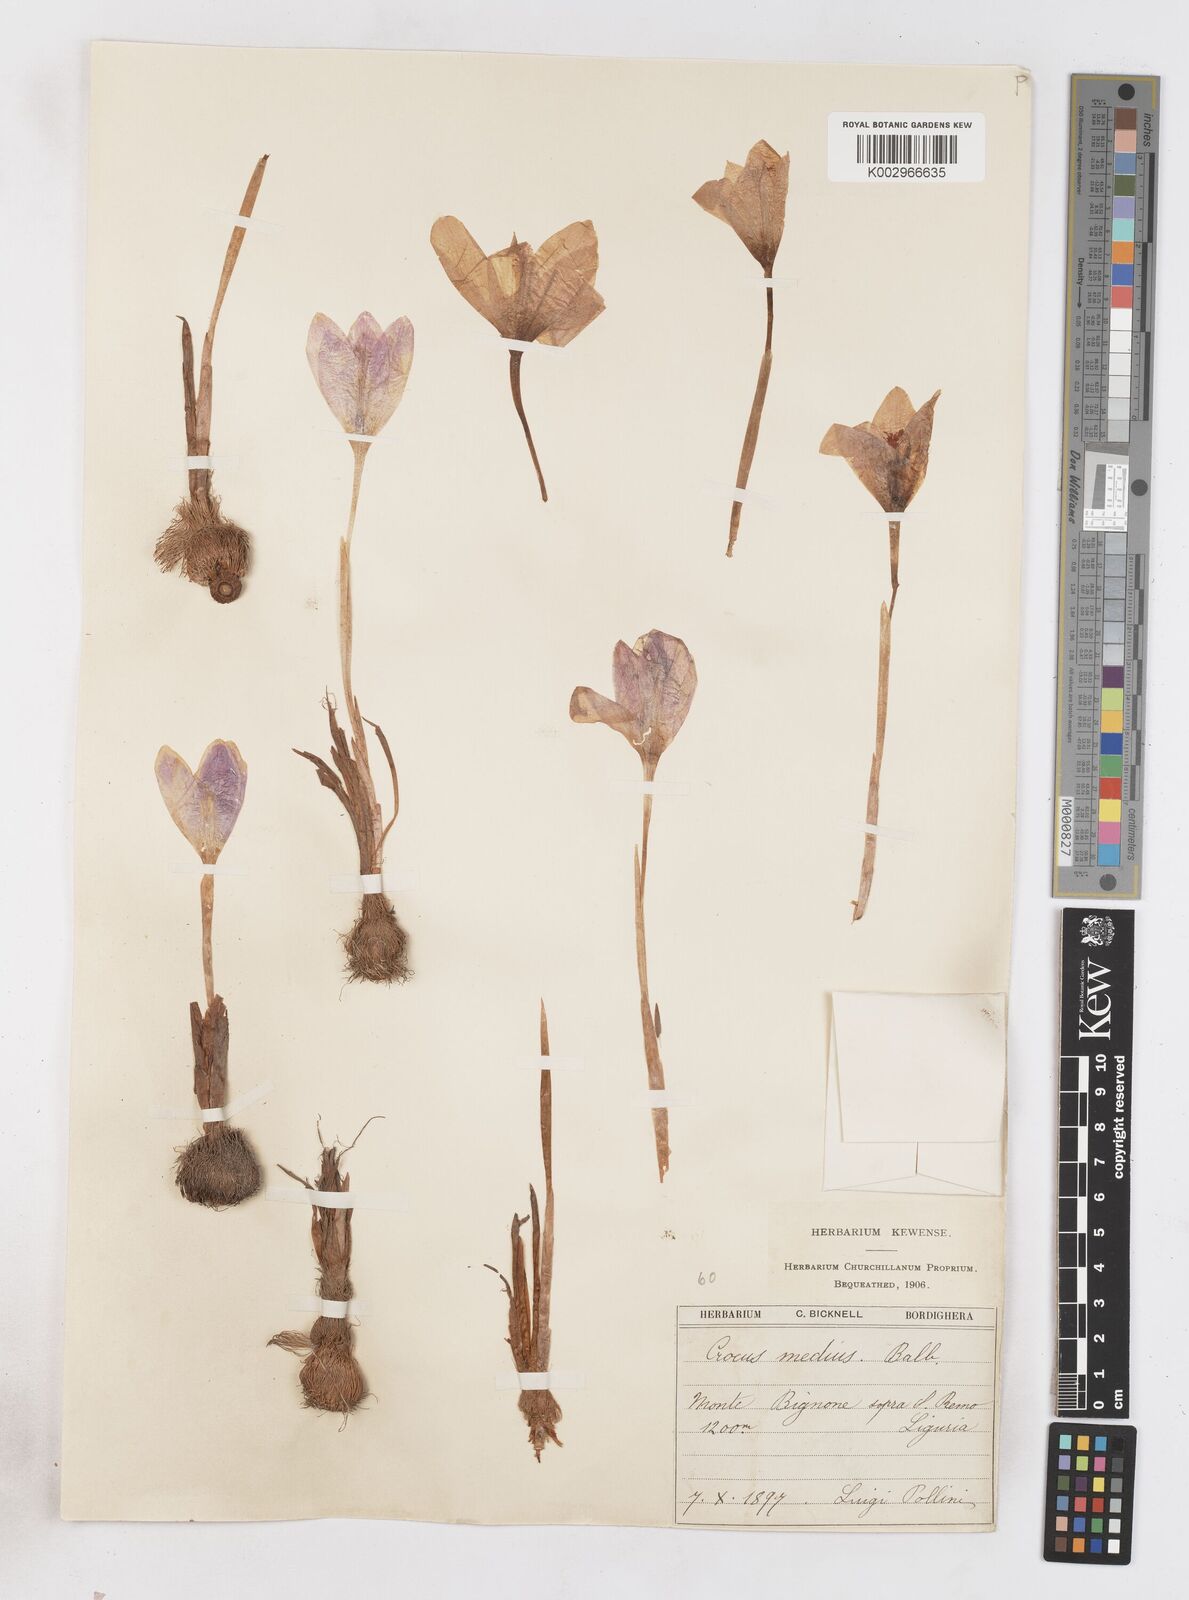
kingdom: Plantae
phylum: Tracheophyta
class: Liliopsida
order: Asparagales
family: Iridaceae
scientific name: Iridaceae
